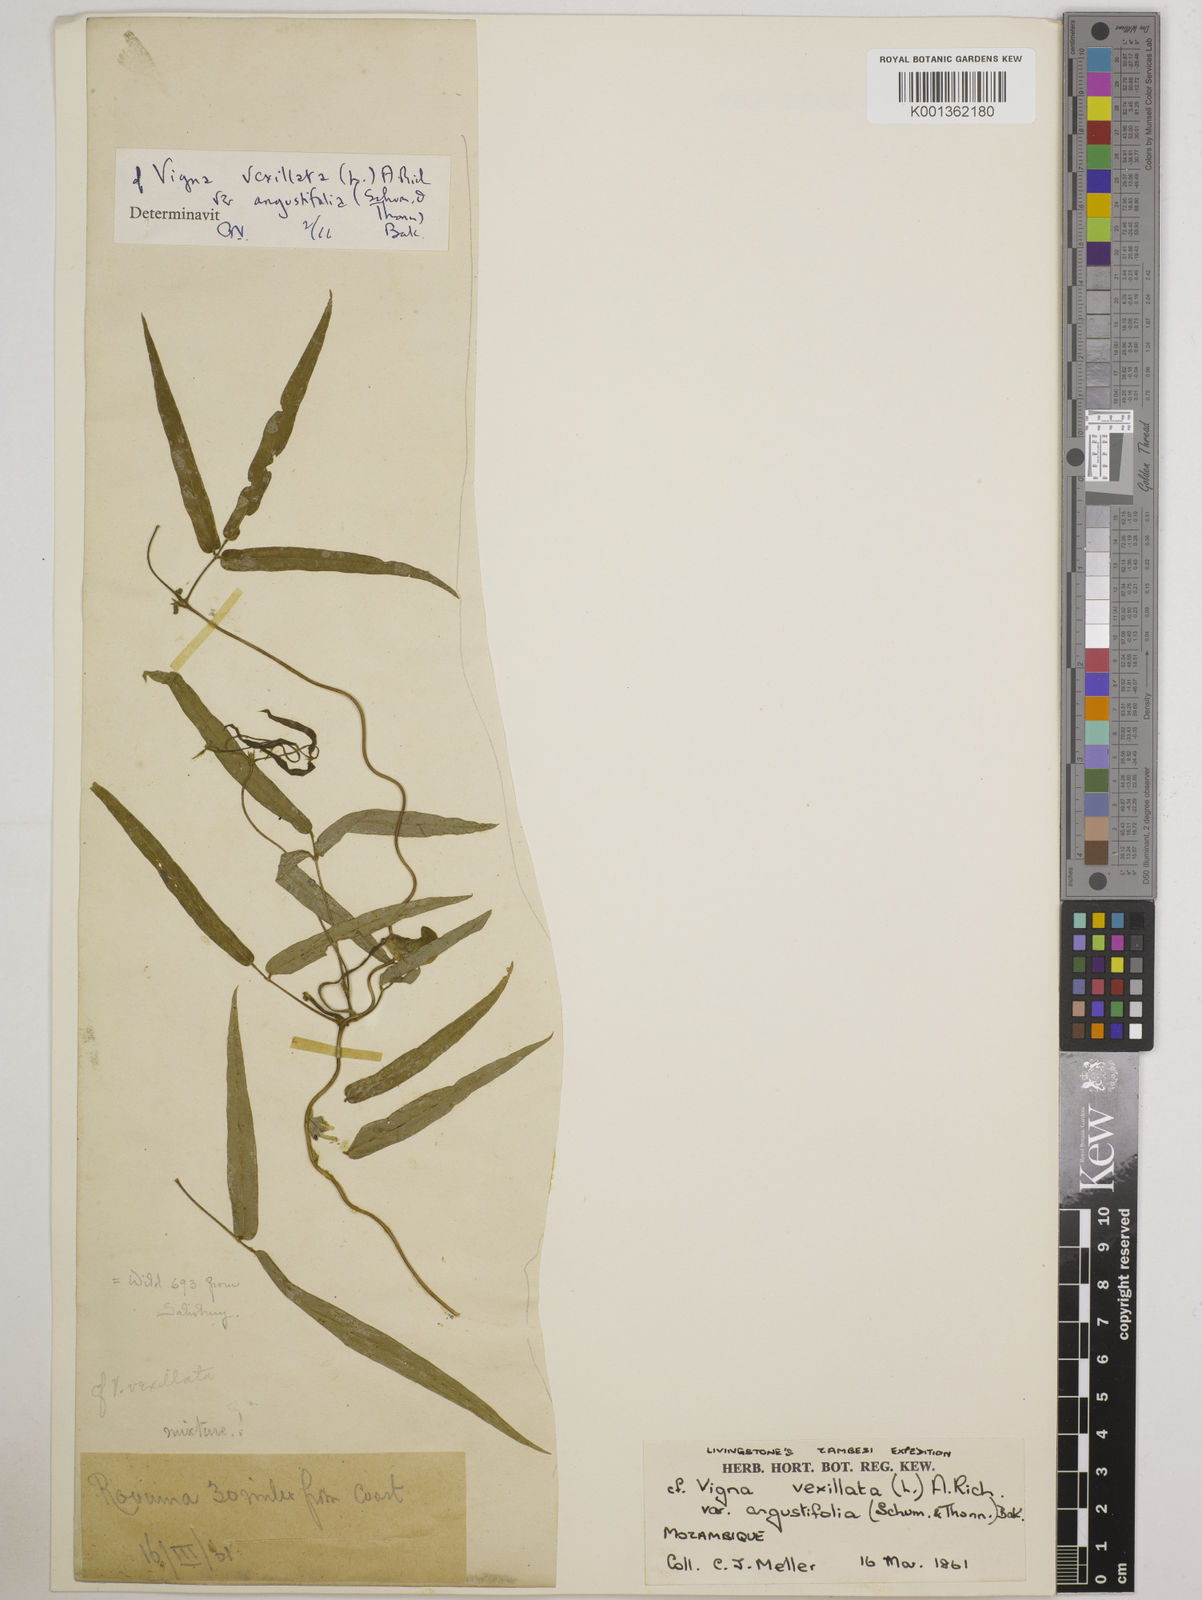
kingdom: Plantae
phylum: Tracheophyta
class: Magnoliopsida
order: Fabales
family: Fabaceae
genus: Vigna
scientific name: Vigna vexillata
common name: Zombi pea
